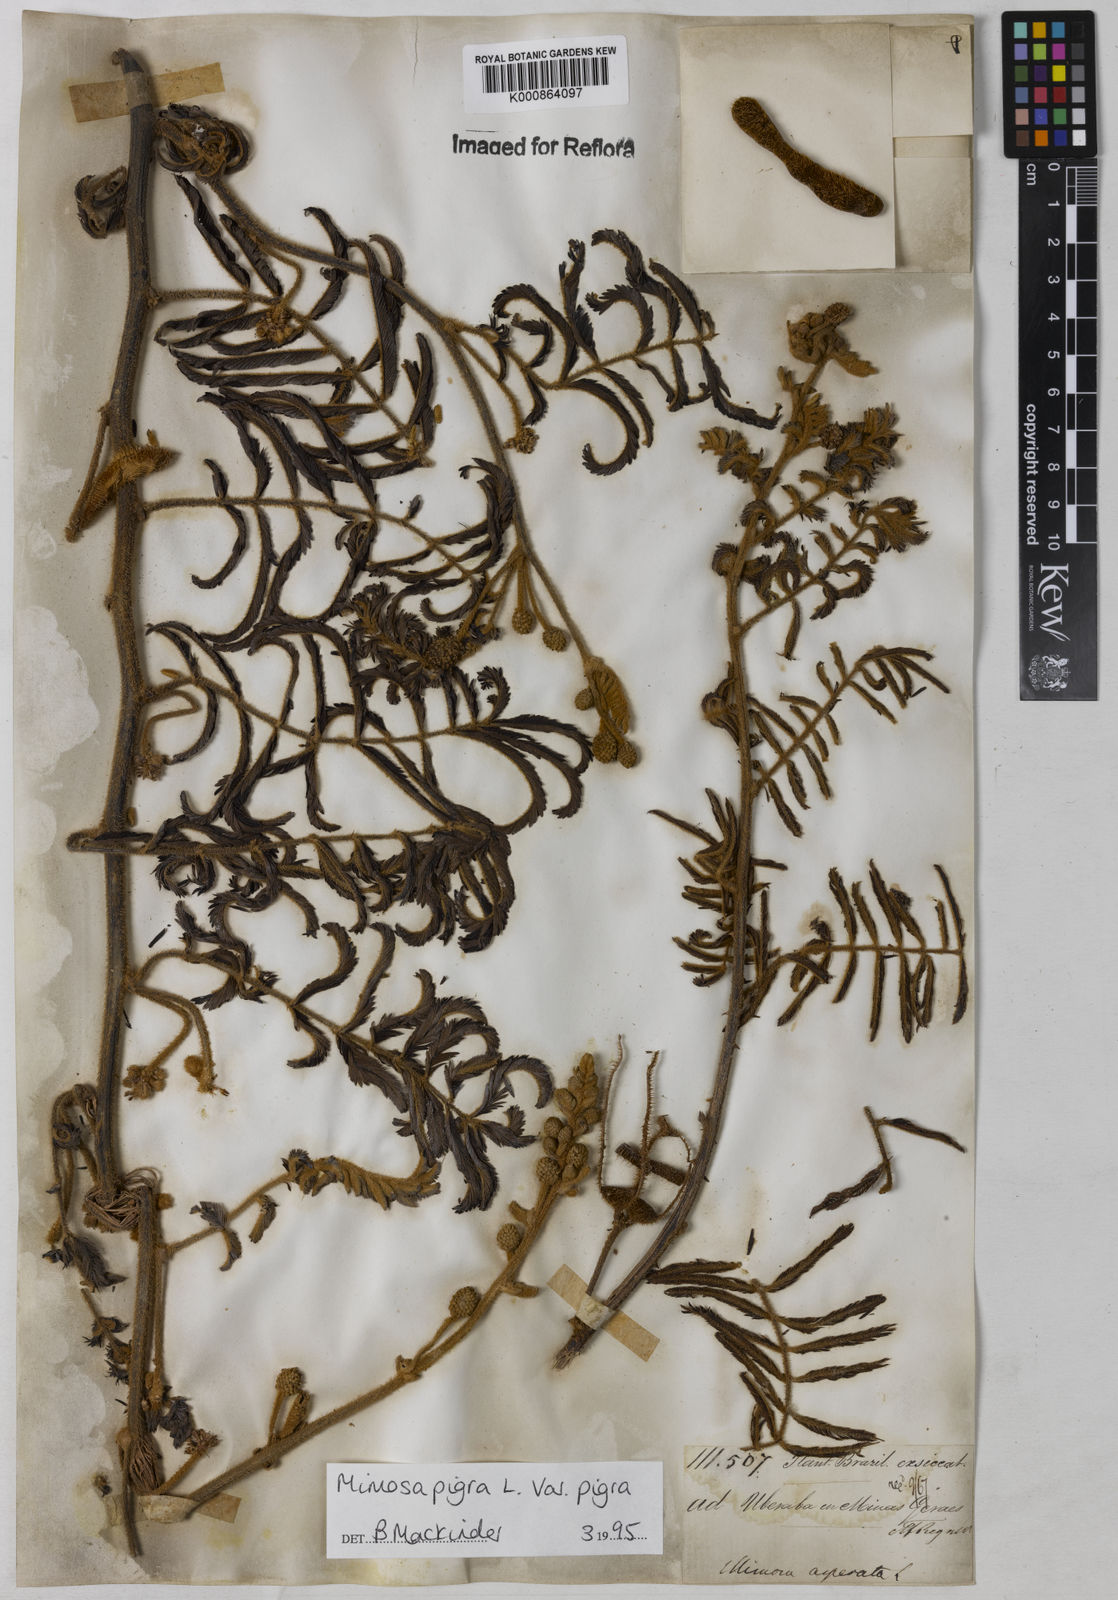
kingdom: Plantae
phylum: Tracheophyta
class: Magnoliopsida
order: Fabales
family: Fabaceae
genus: Mimosa
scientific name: Mimosa pigra
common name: Black mimosa
